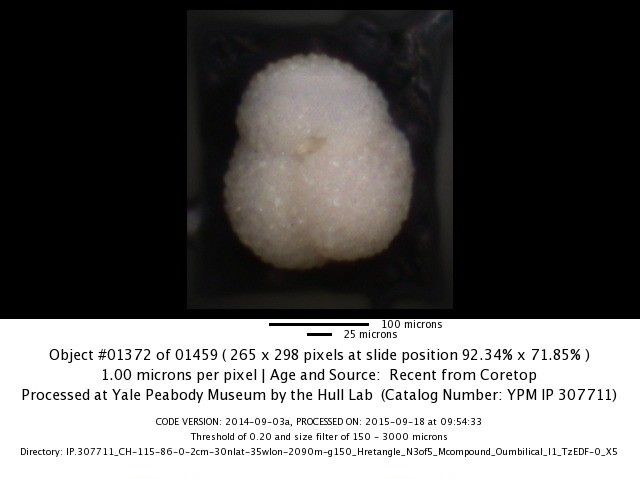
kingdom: Chromista
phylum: Foraminifera
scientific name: Foraminifera
